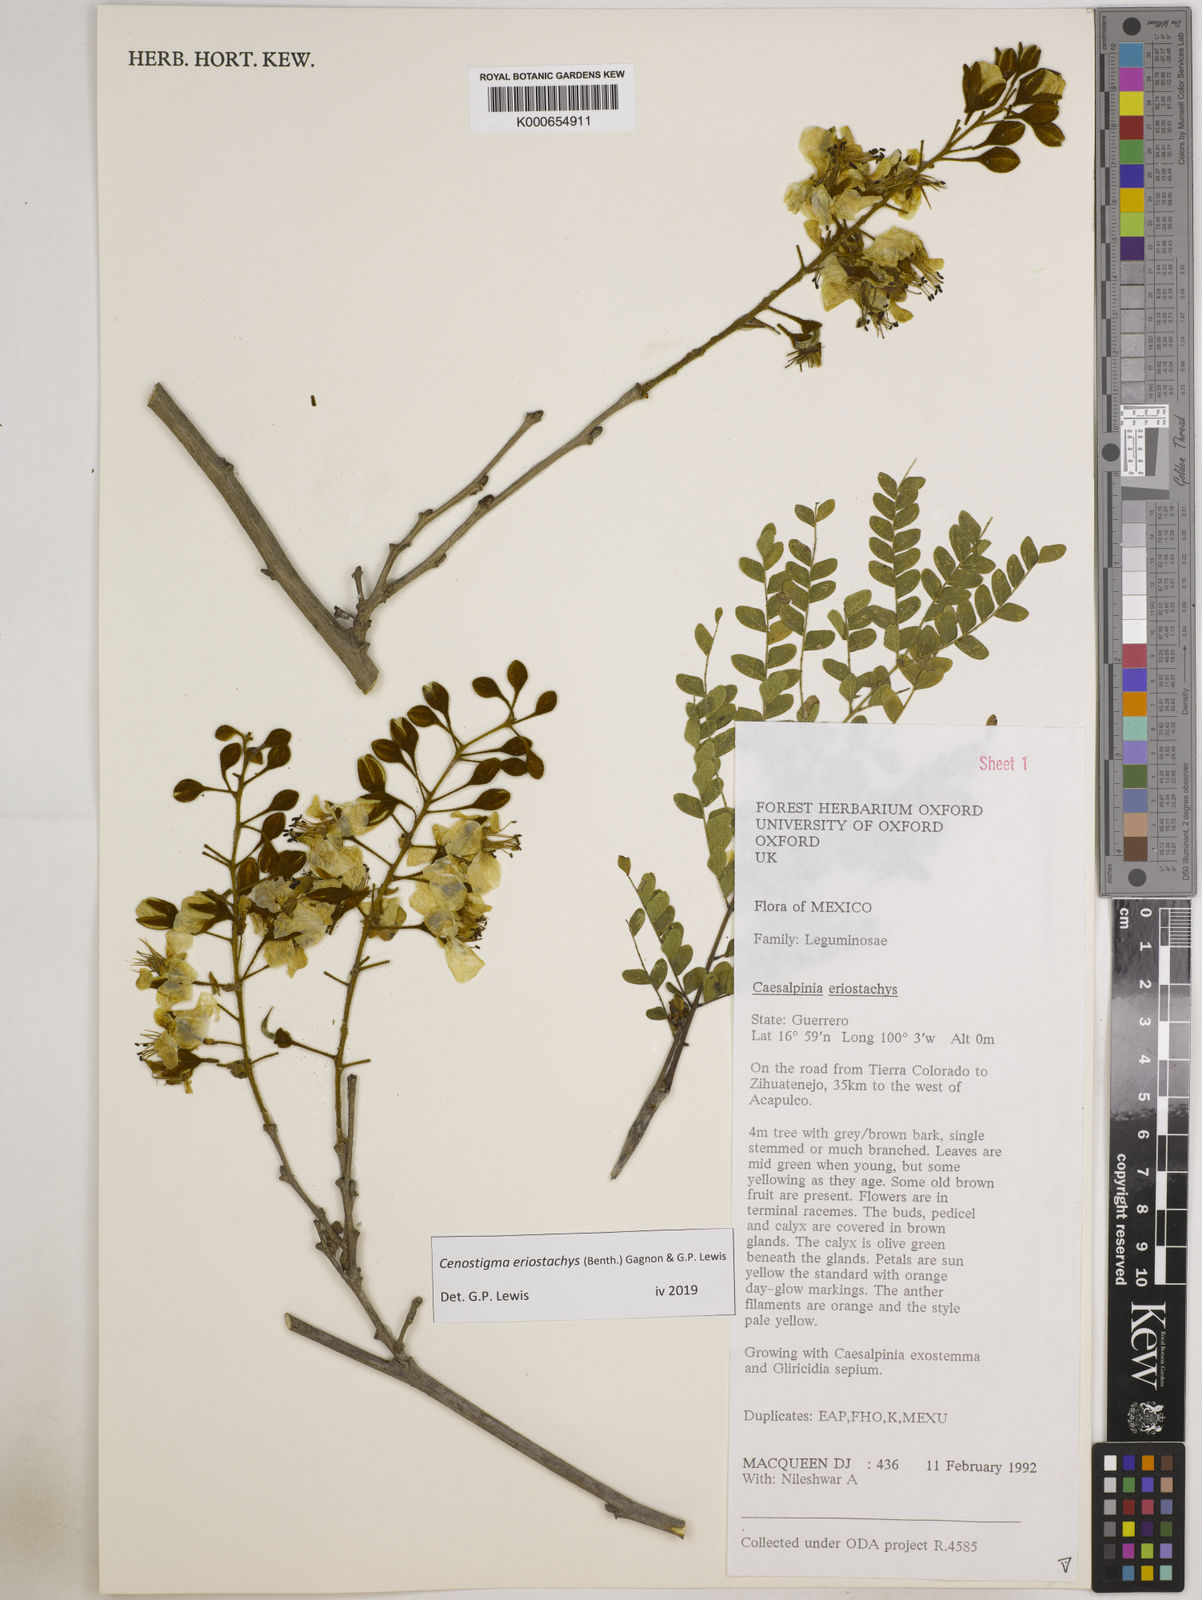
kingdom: Plantae
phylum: Tracheophyta
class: Magnoliopsida
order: Fabales
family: Fabaceae
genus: Cenostigma
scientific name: Cenostigma eriostachys
